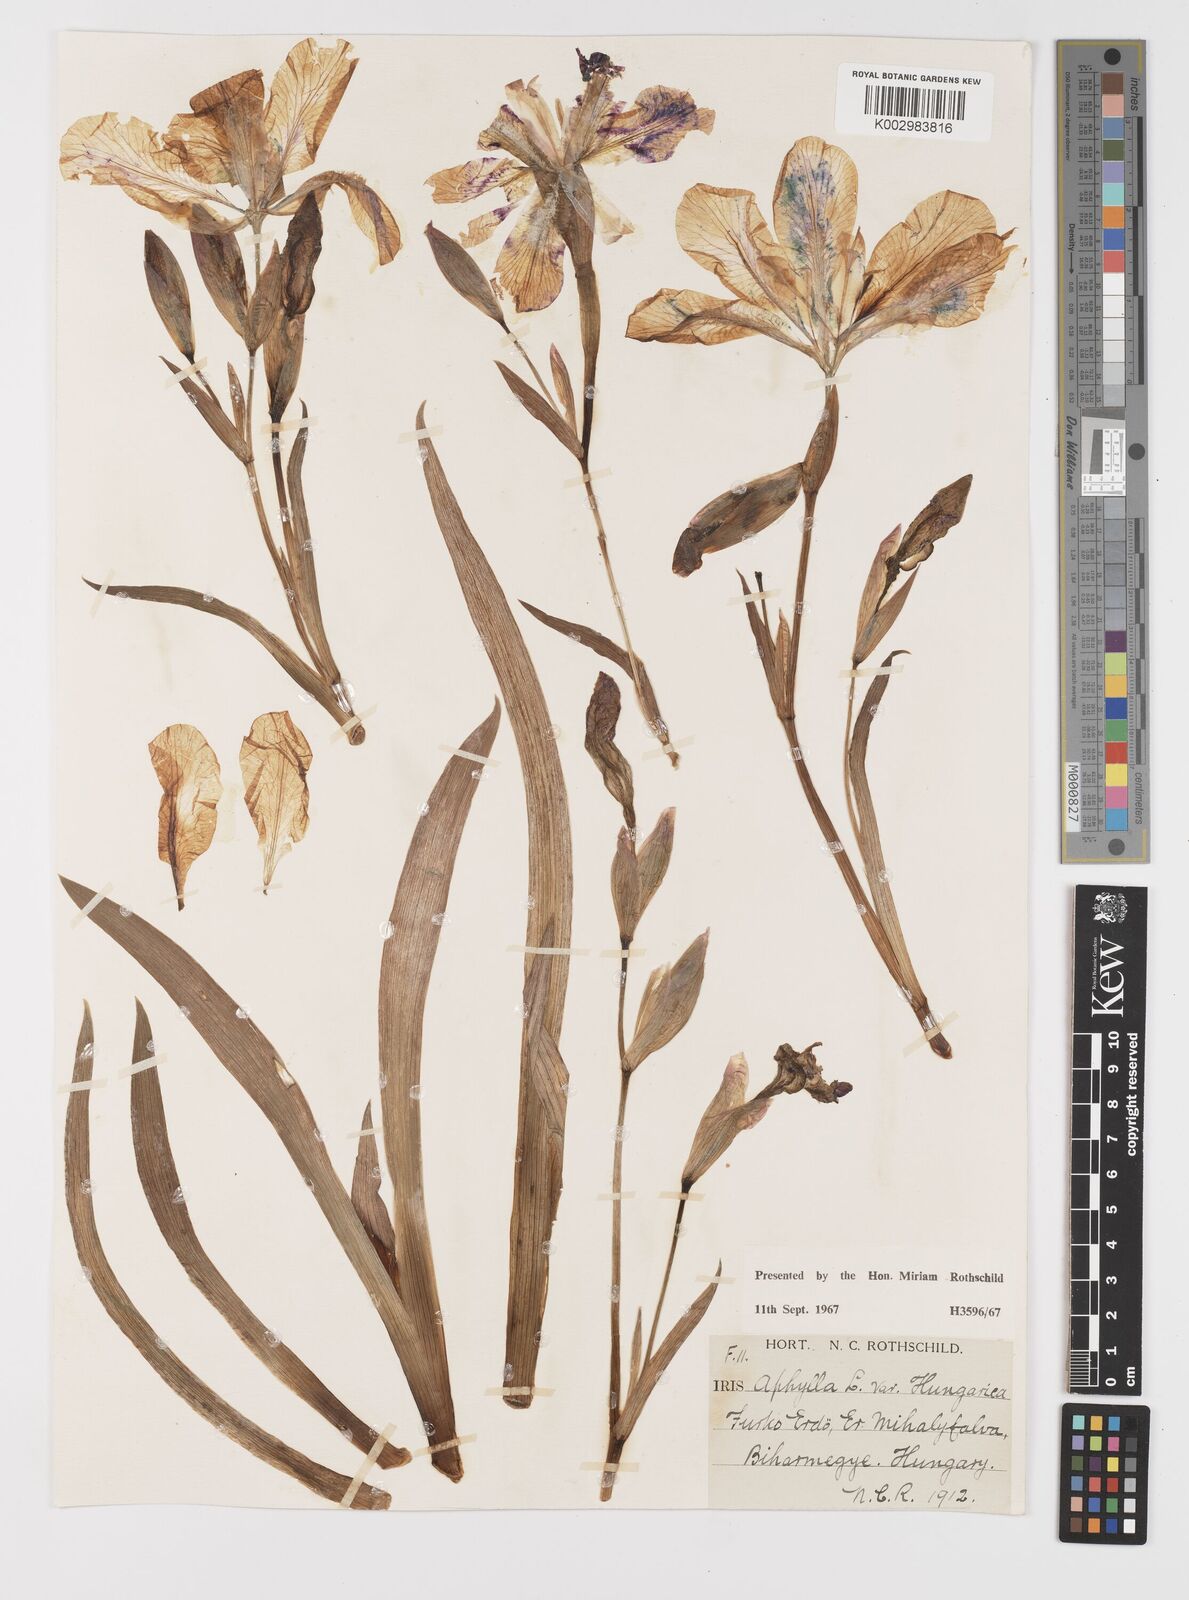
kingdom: Plantae
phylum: Tracheophyta
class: Liliopsida
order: Asparagales
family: Iridaceae
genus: Iris
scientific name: Iris aphylla
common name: Stool iris
